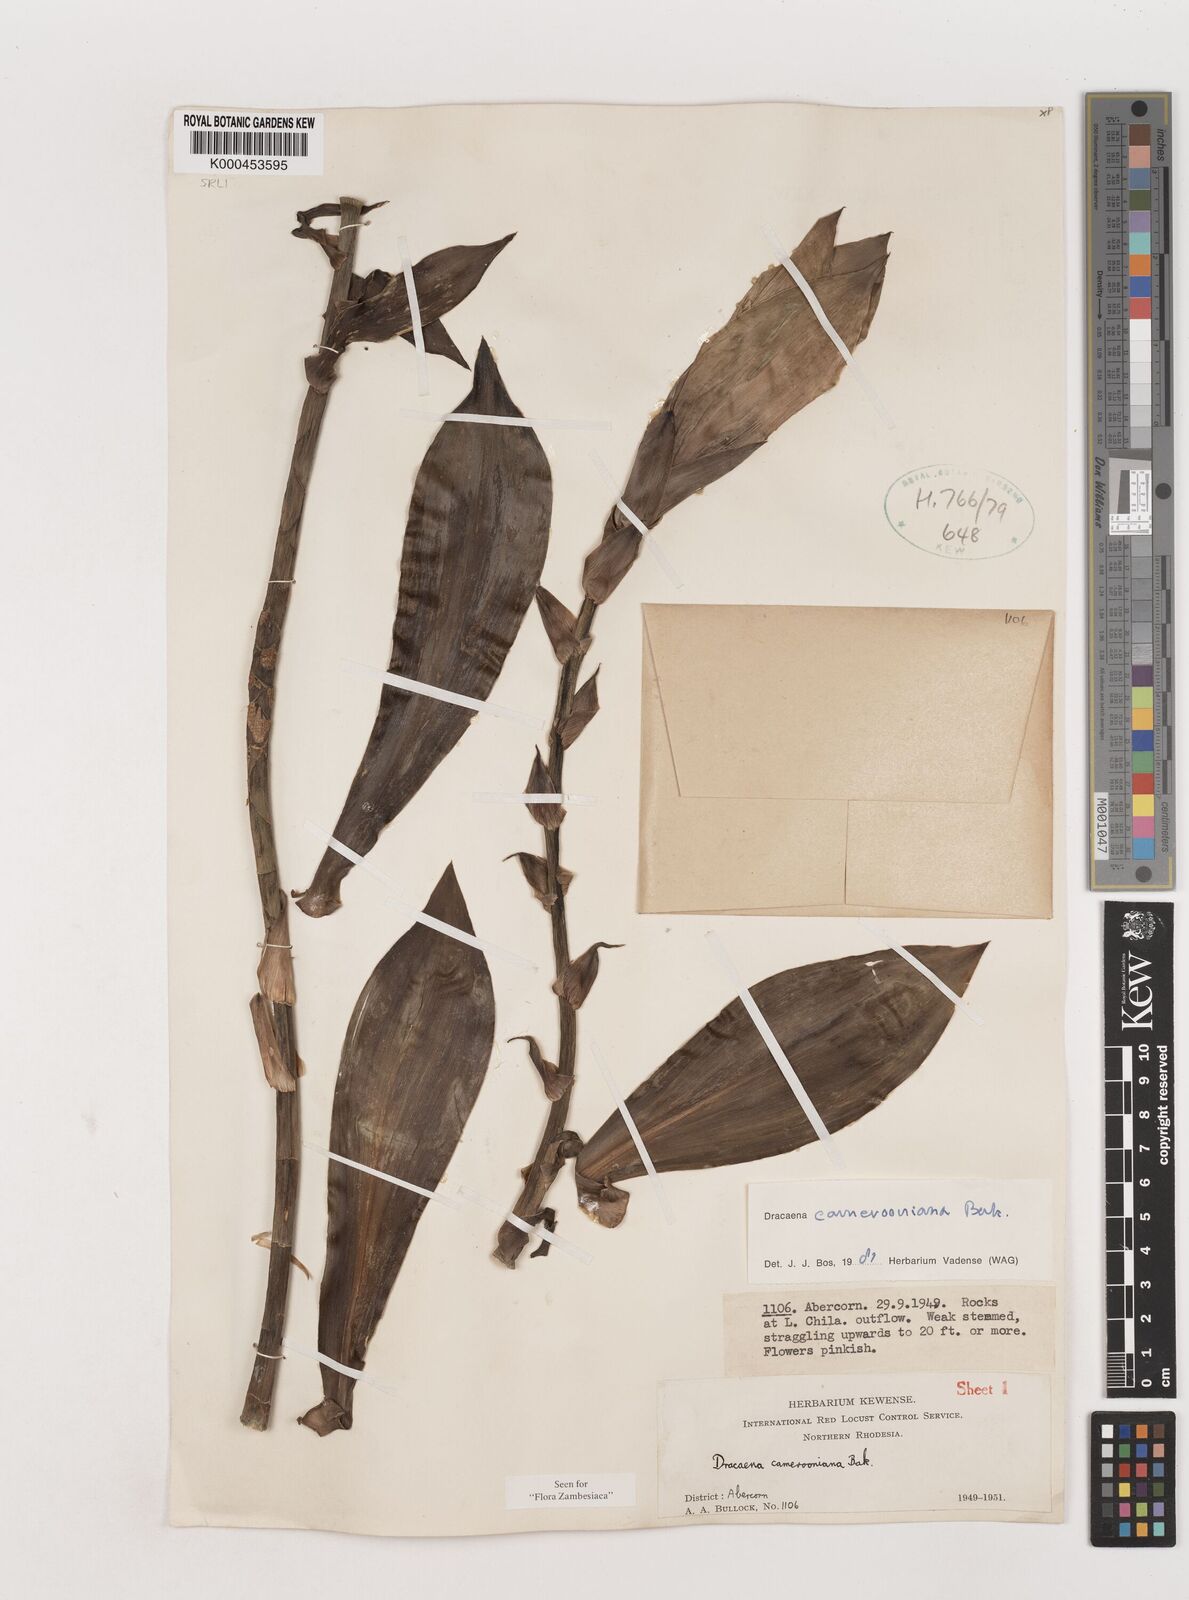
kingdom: Plantae
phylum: Tracheophyta
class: Liliopsida
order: Asparagales
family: Asparagaceae
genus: Dracaena
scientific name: Dracaena camerooniana
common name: Dragon tree
